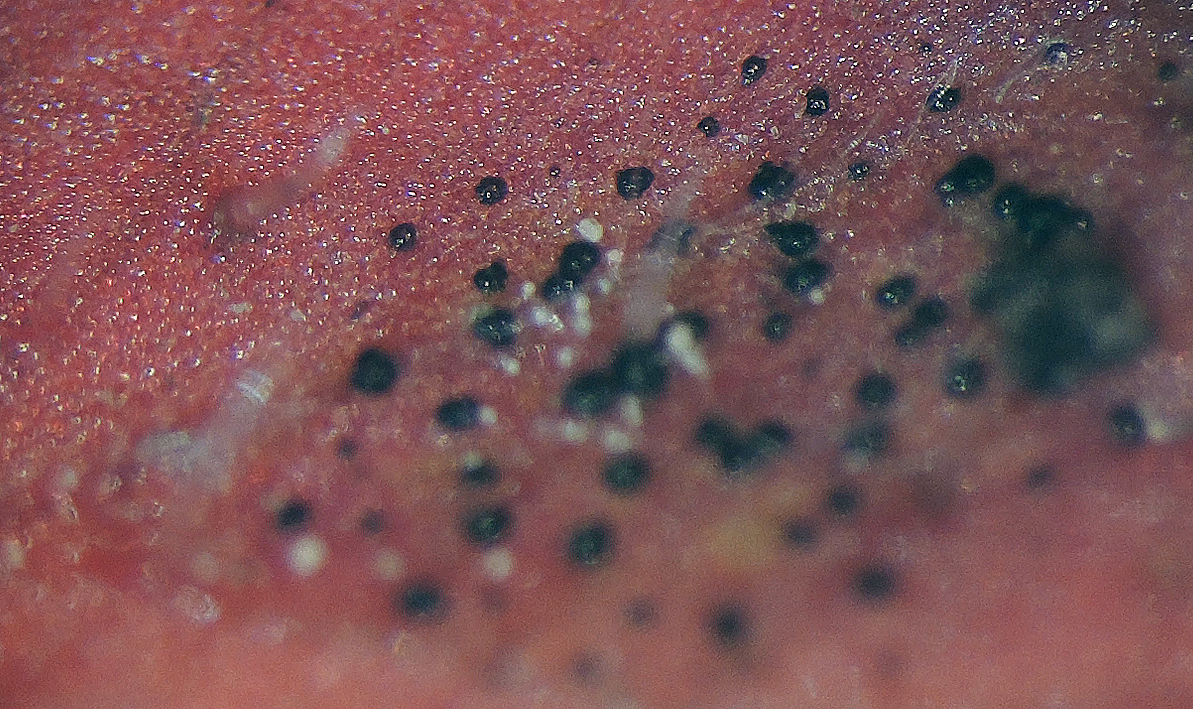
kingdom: Fungi
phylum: Ascomycota
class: Dothideomycetes
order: Venturiales
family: Venturiaceae
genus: Coleroa
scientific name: Coleroa robertiani
